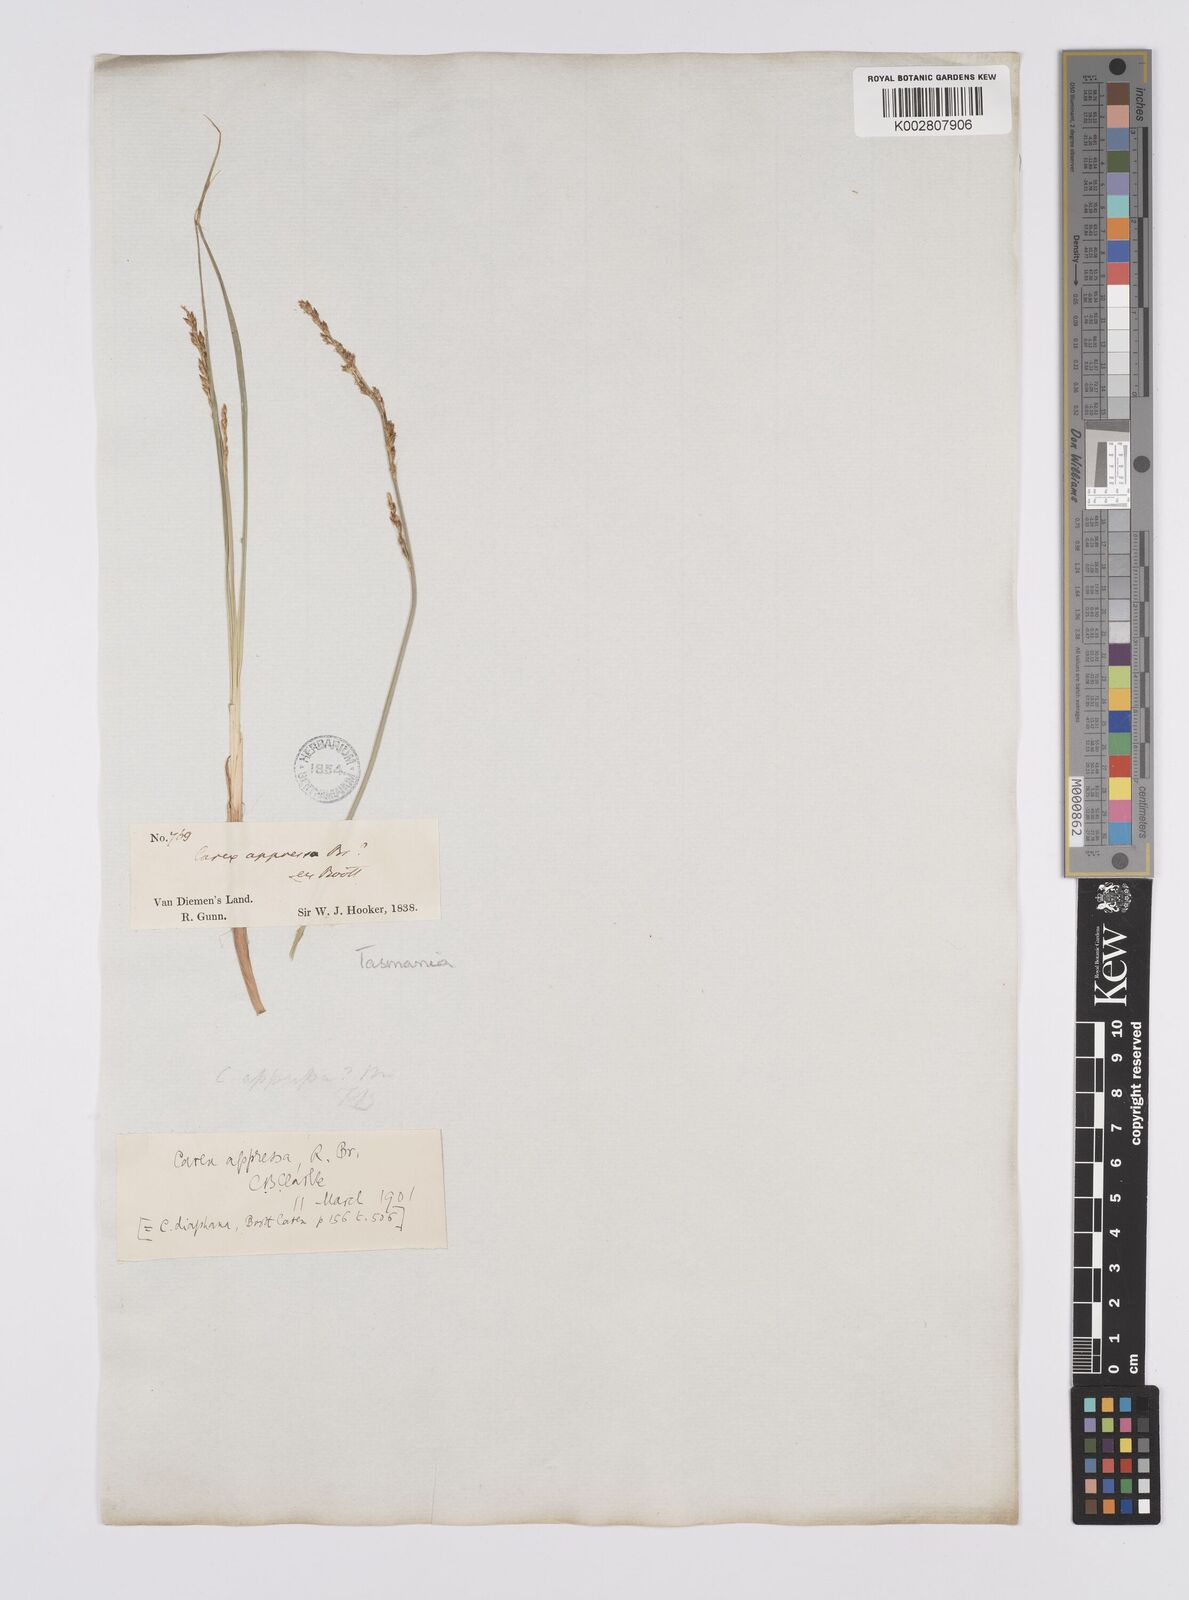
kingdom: Plantae
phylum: Tracheophyta
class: Liliopsida
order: Poales
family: Cyperaceae
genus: Carex
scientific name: Carex appressa
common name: Tussock sedge
